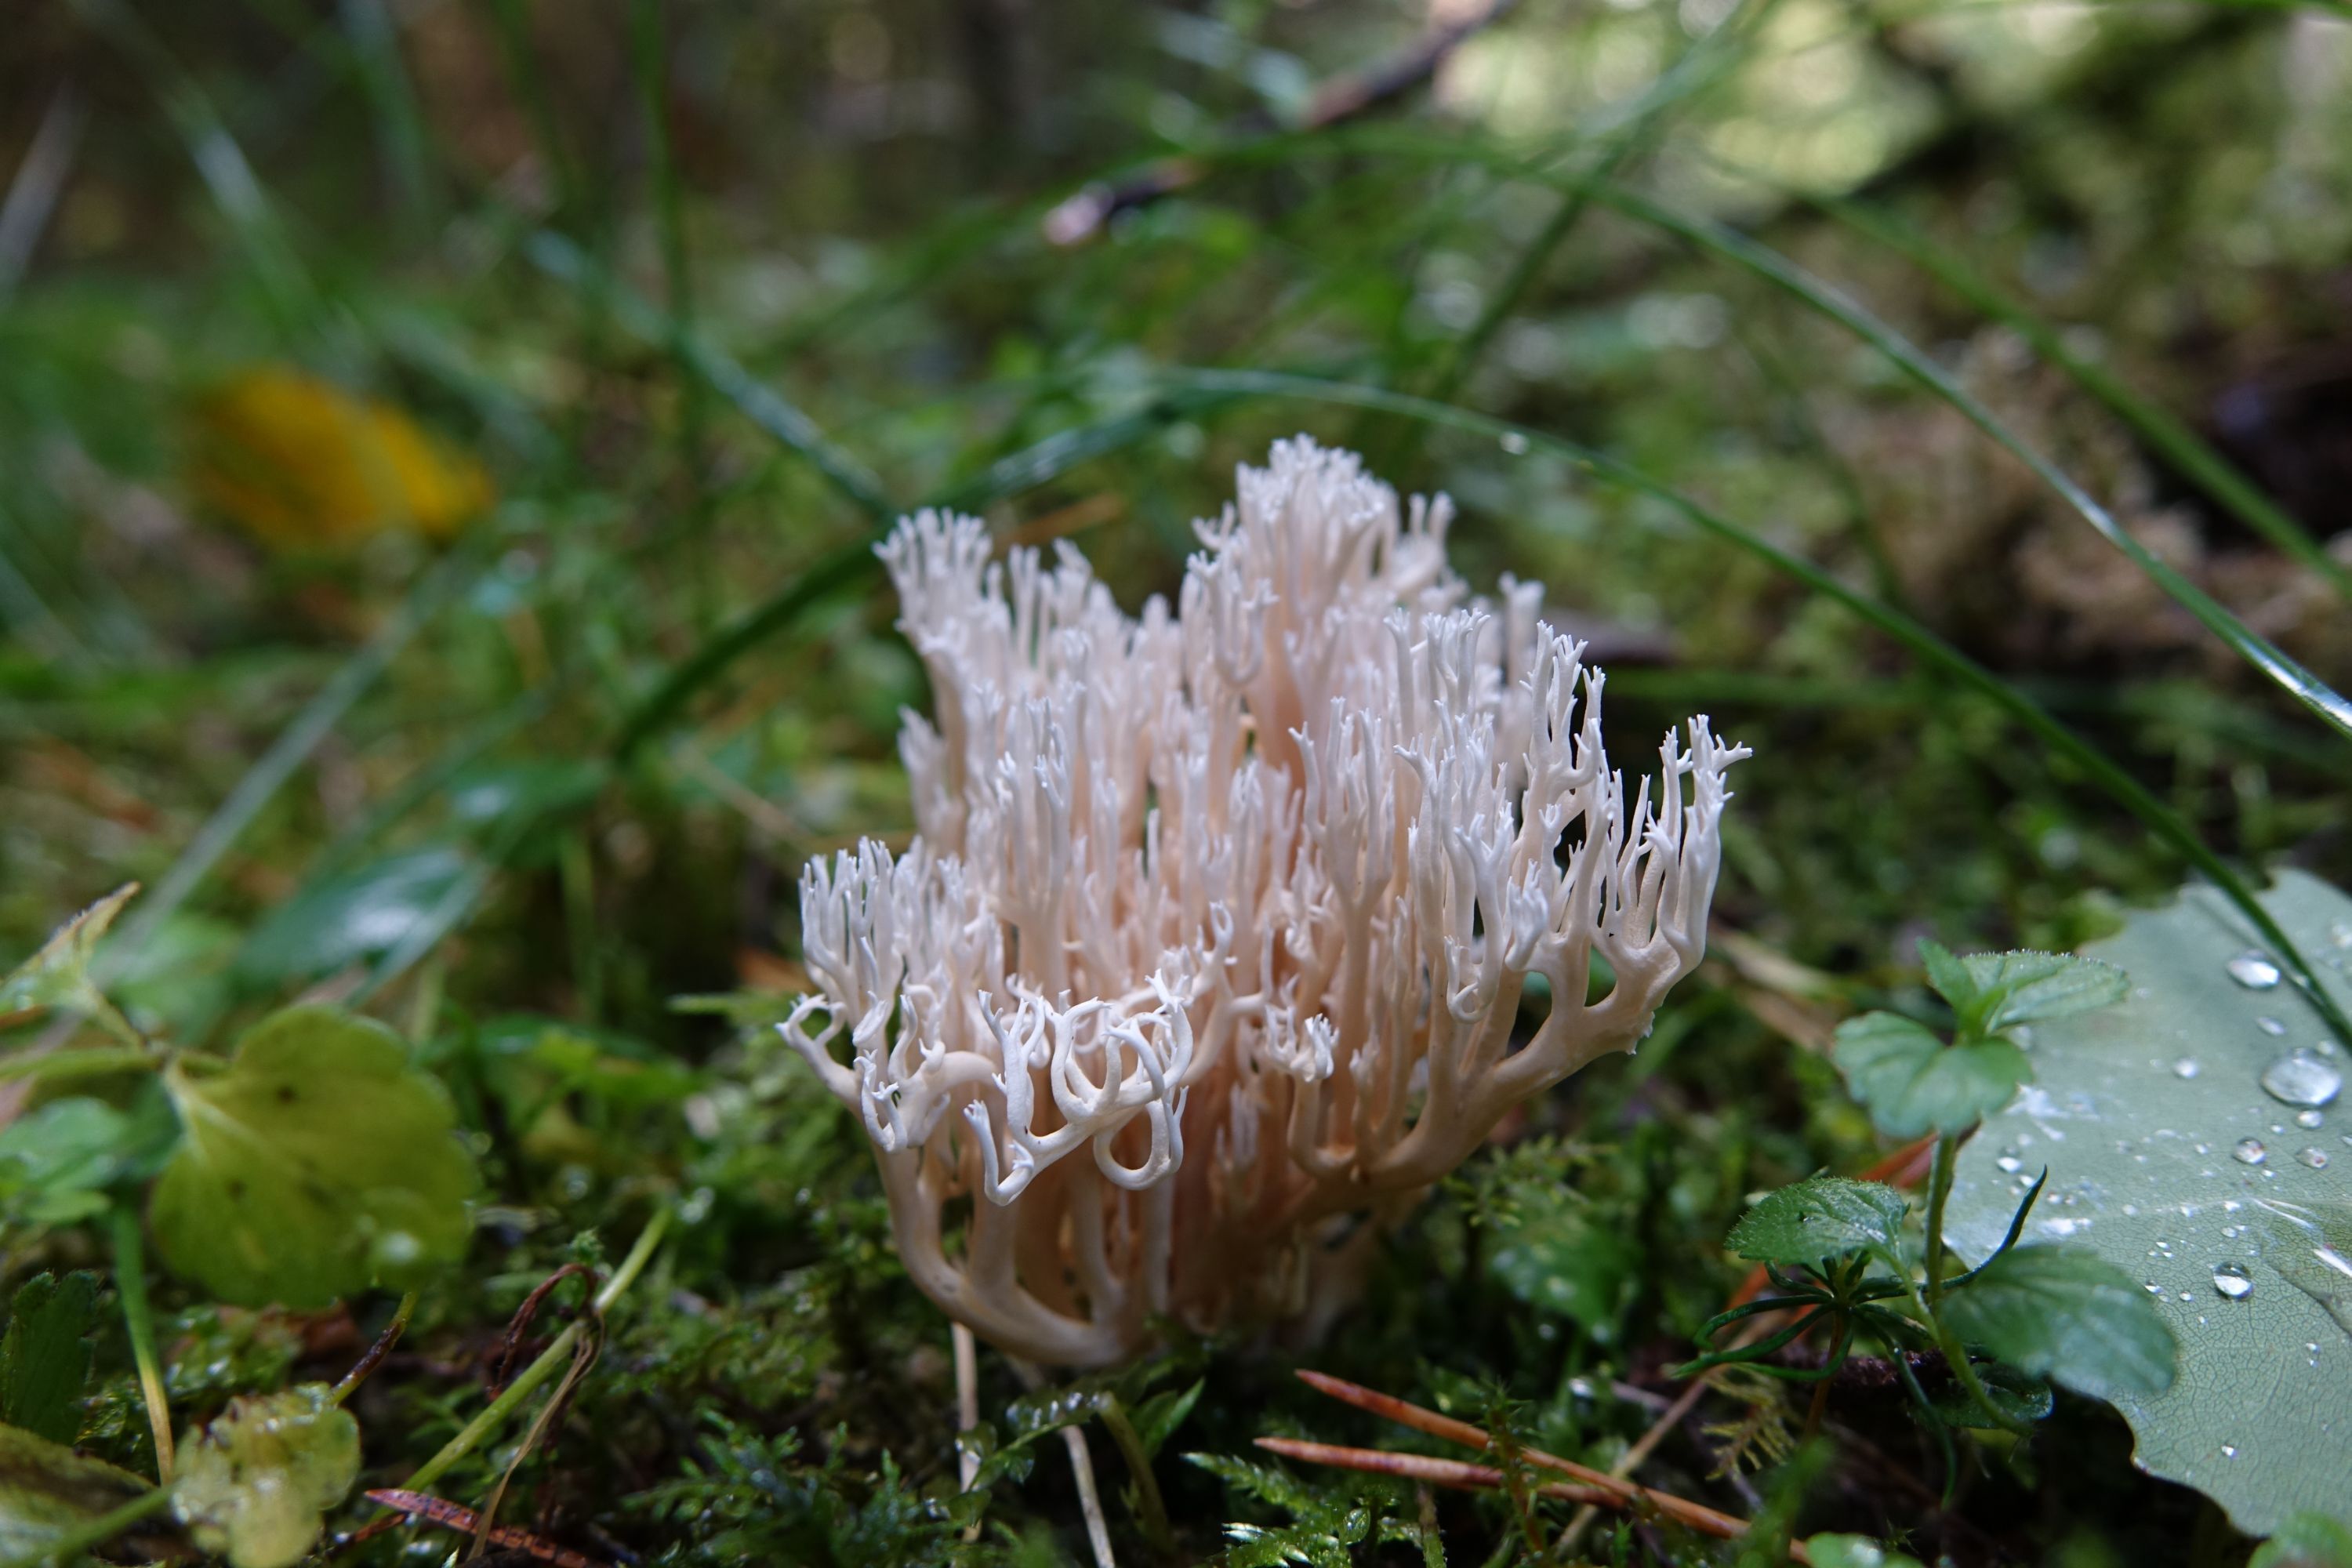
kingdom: Fungi
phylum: Basidiomycota
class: Agaricomycetes
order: Gomphales
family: Gomphaceae
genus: Ramaria
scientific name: Ramaria gracilis
